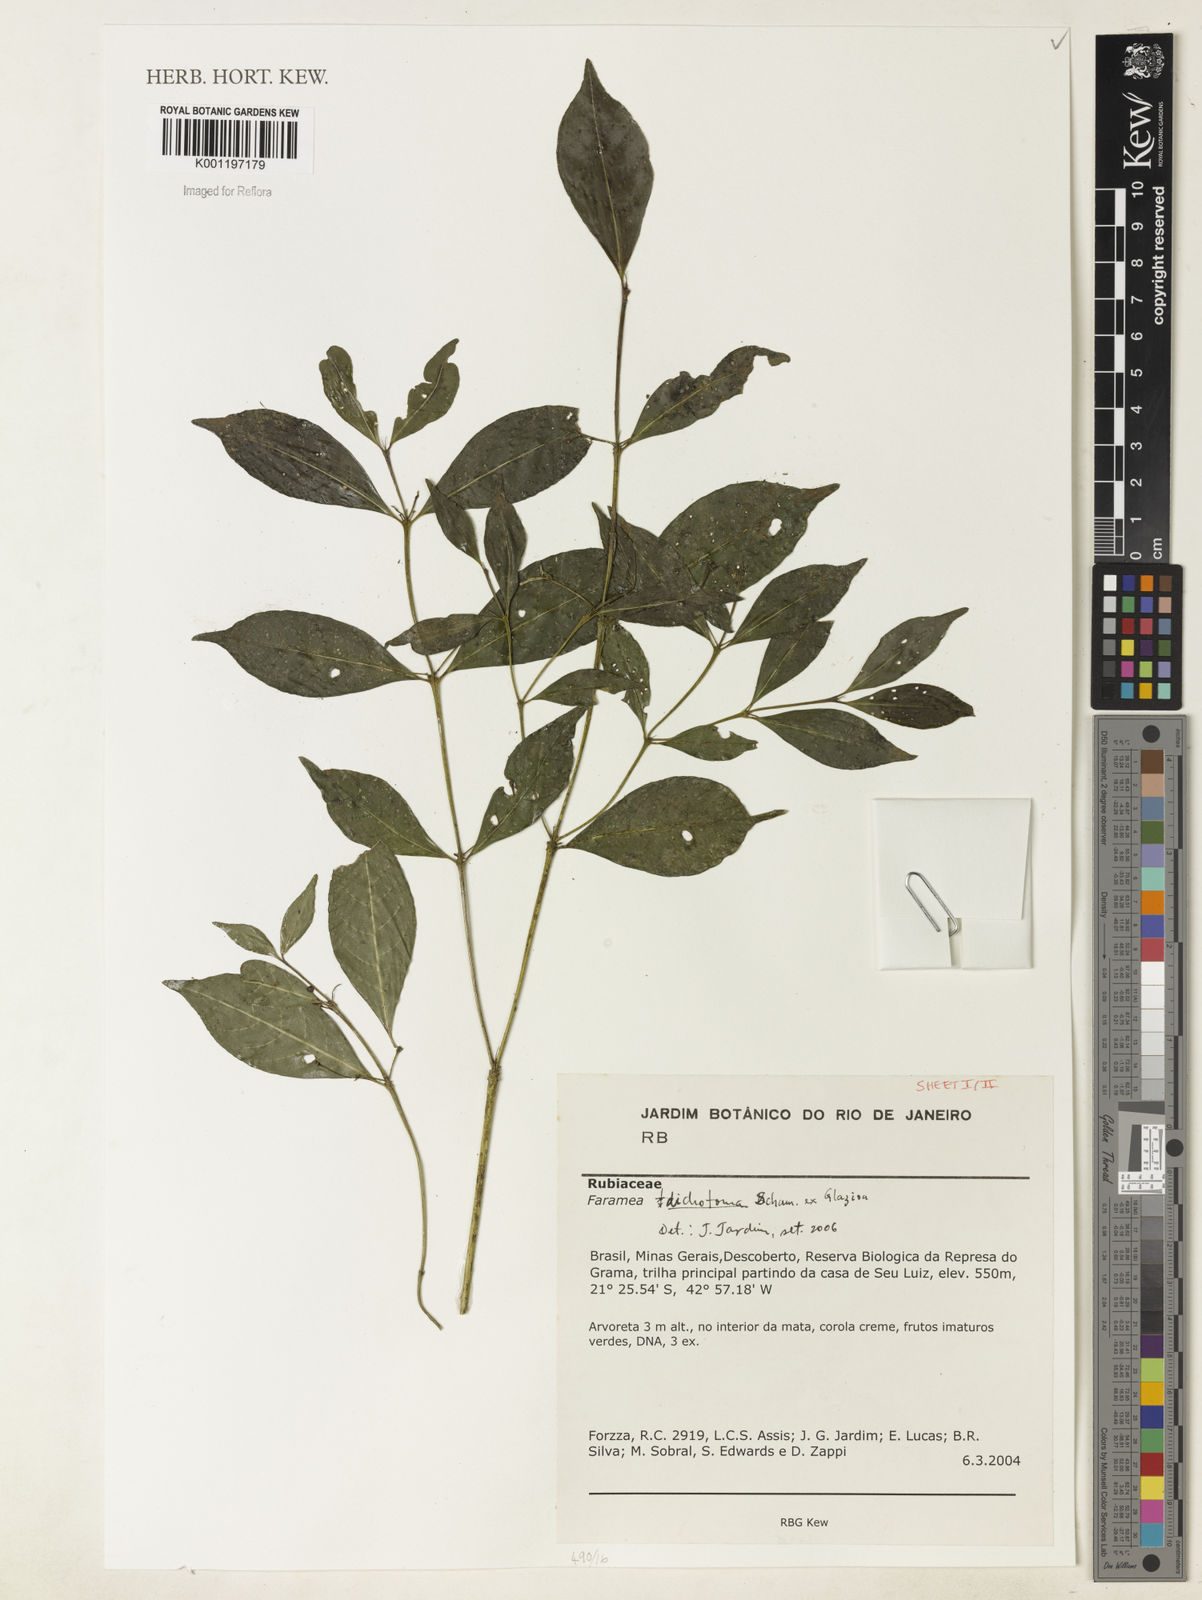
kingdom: Plantae
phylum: Tracheophyta
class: Magnoliopsida
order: Gentianales
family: Rubiaceae
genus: Faramea
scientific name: Faramea dichotoma
